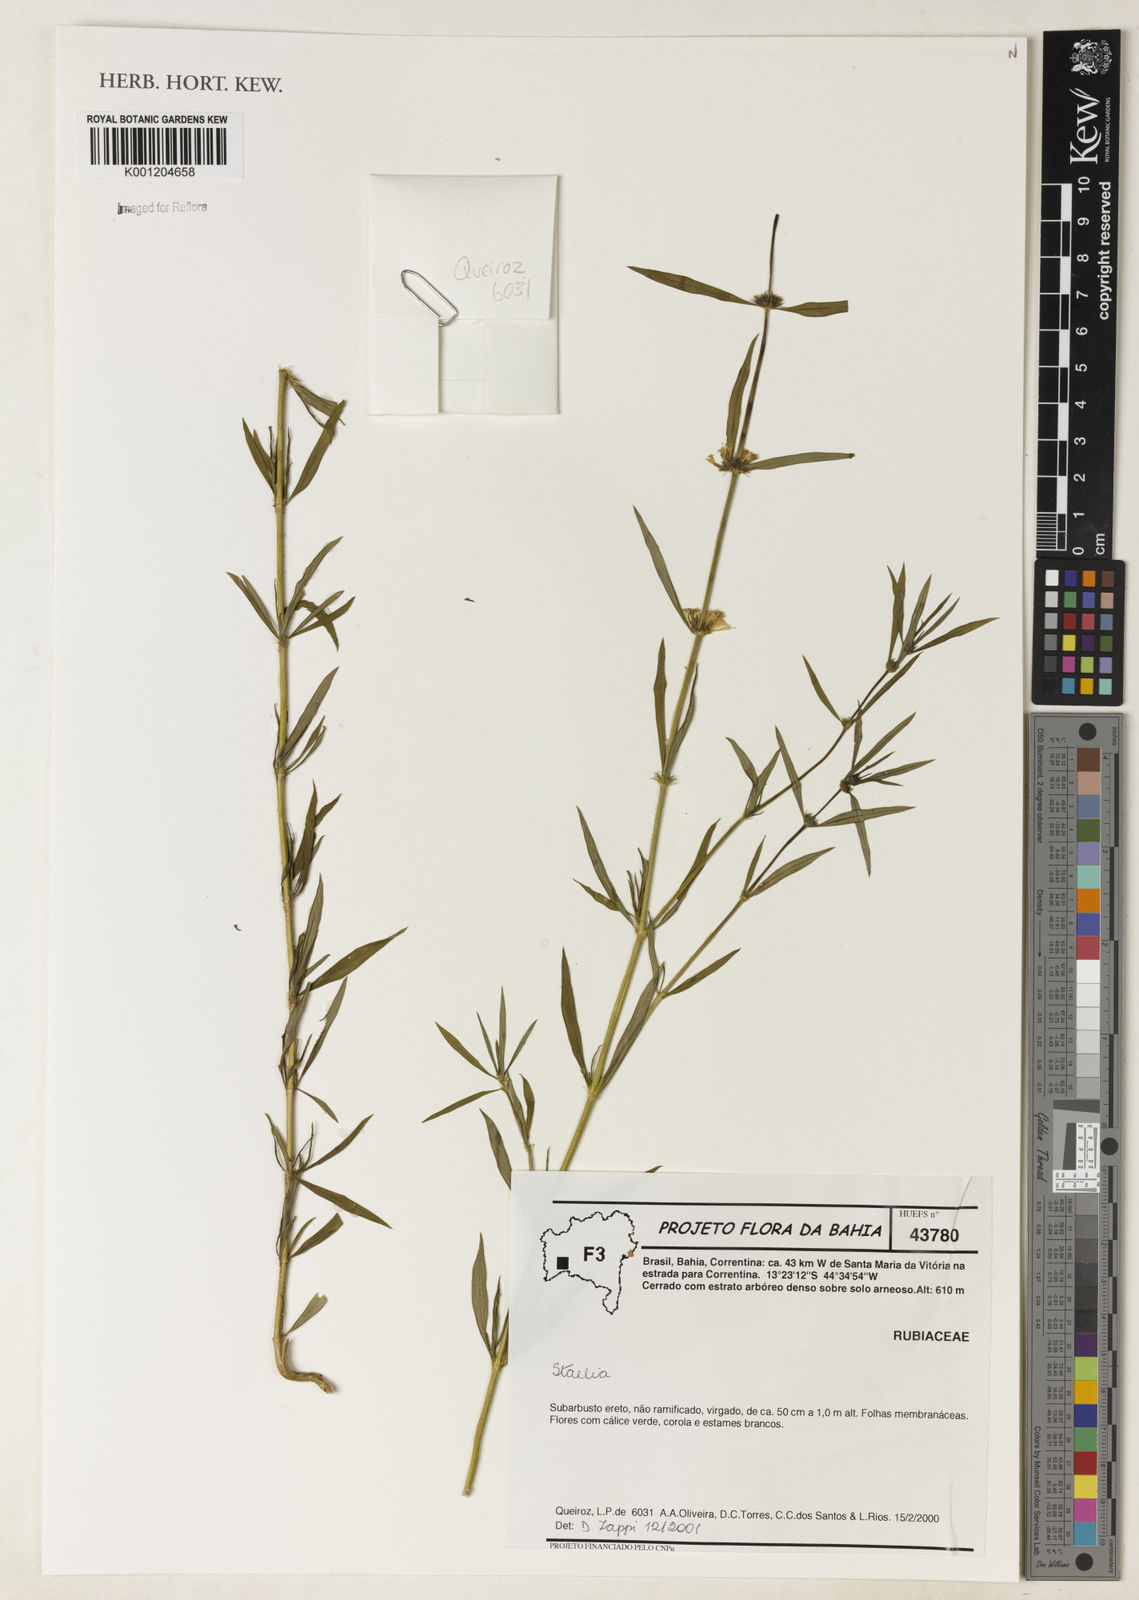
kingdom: Plantae
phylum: Tracheophyta
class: Magnoliopsida
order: Gentianales
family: Rubiaceae
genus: Staelia
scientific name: Staelia
